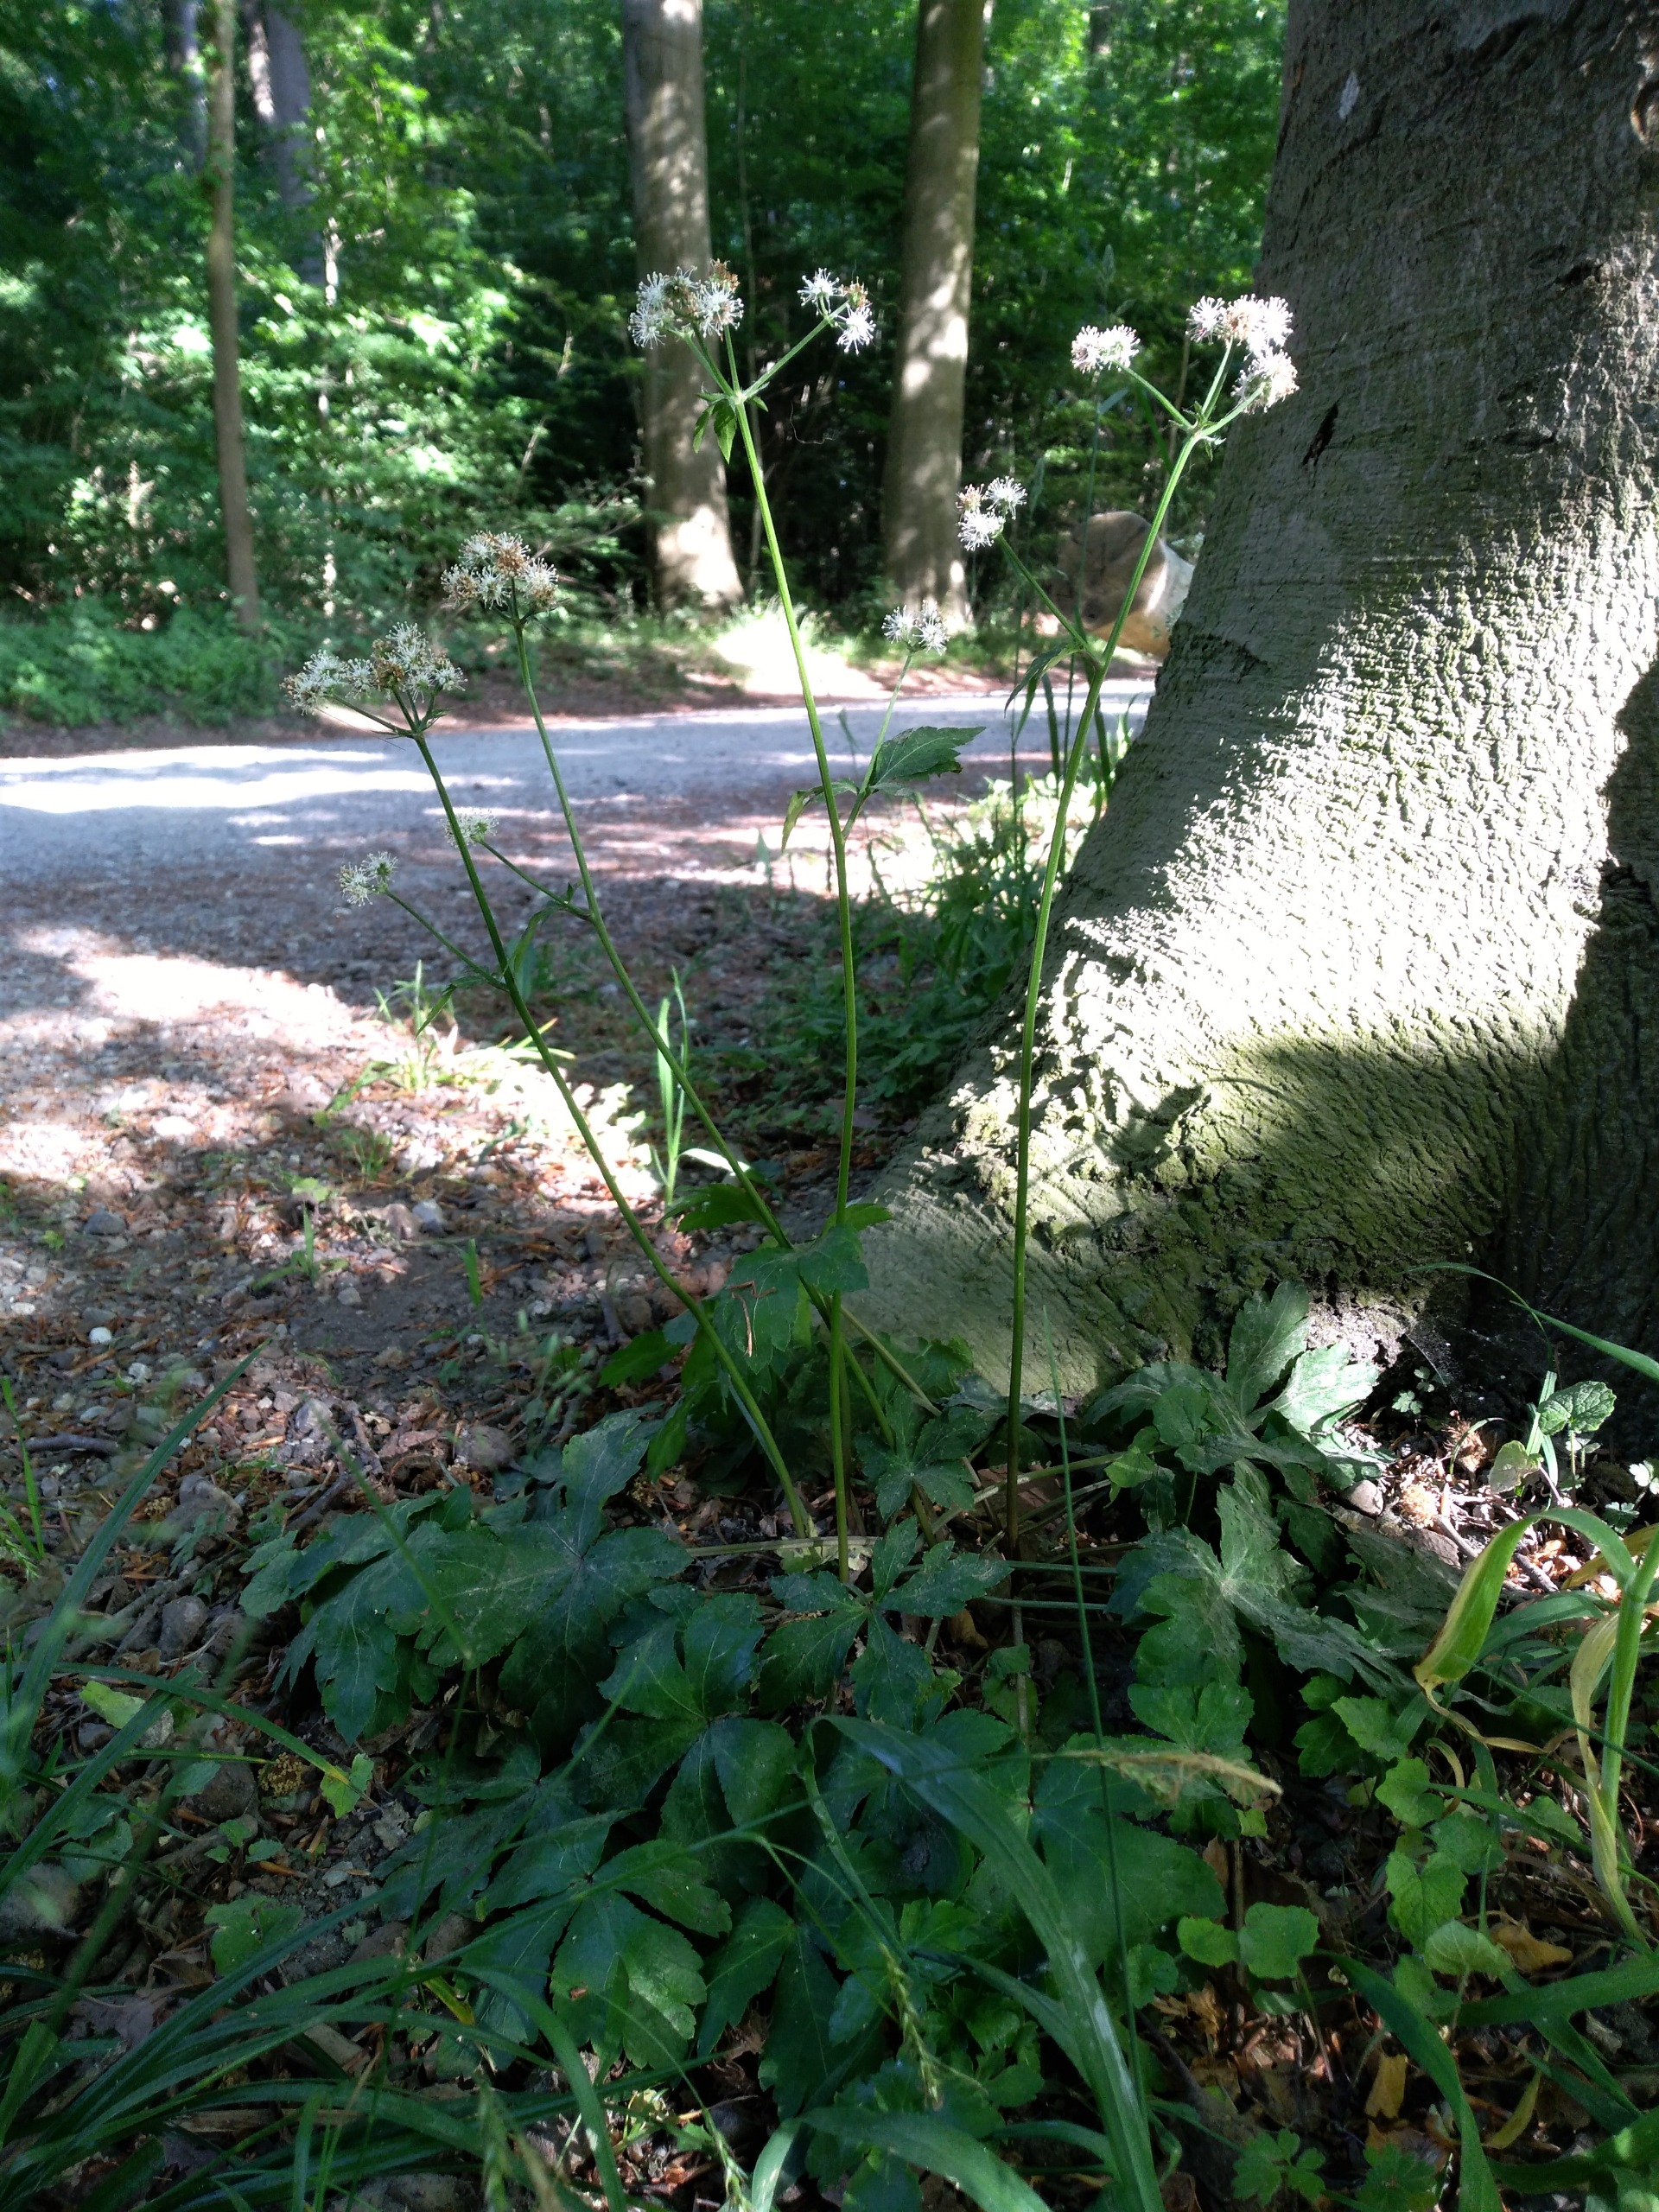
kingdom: Plantae
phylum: Tracheophyta
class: Magnoliopsida
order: Apiales
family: Apiaceae
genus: Sanicula
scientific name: Sanicula europaea
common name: Sanikel
